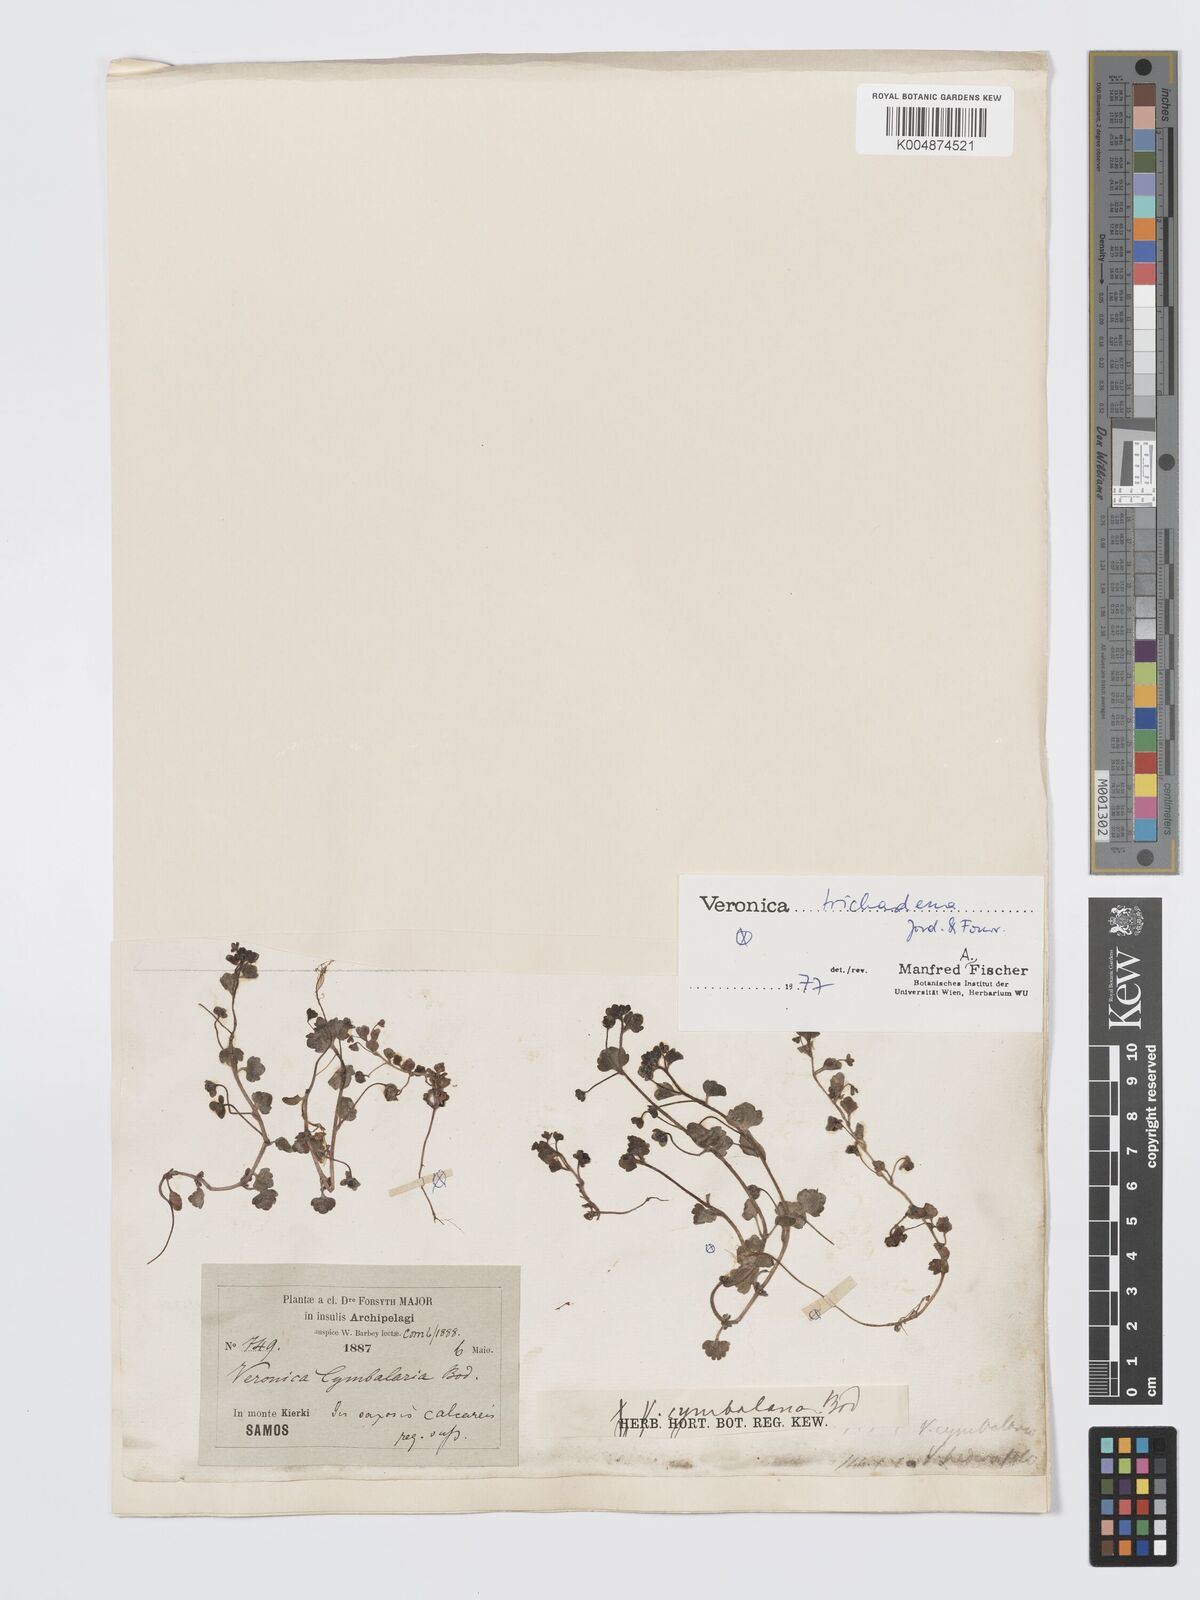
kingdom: Plantae
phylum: Tracheophyta
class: Magnoliopsida
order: Lamiales
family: Plantaginaceae
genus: Veronica
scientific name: Veronica trichadena
